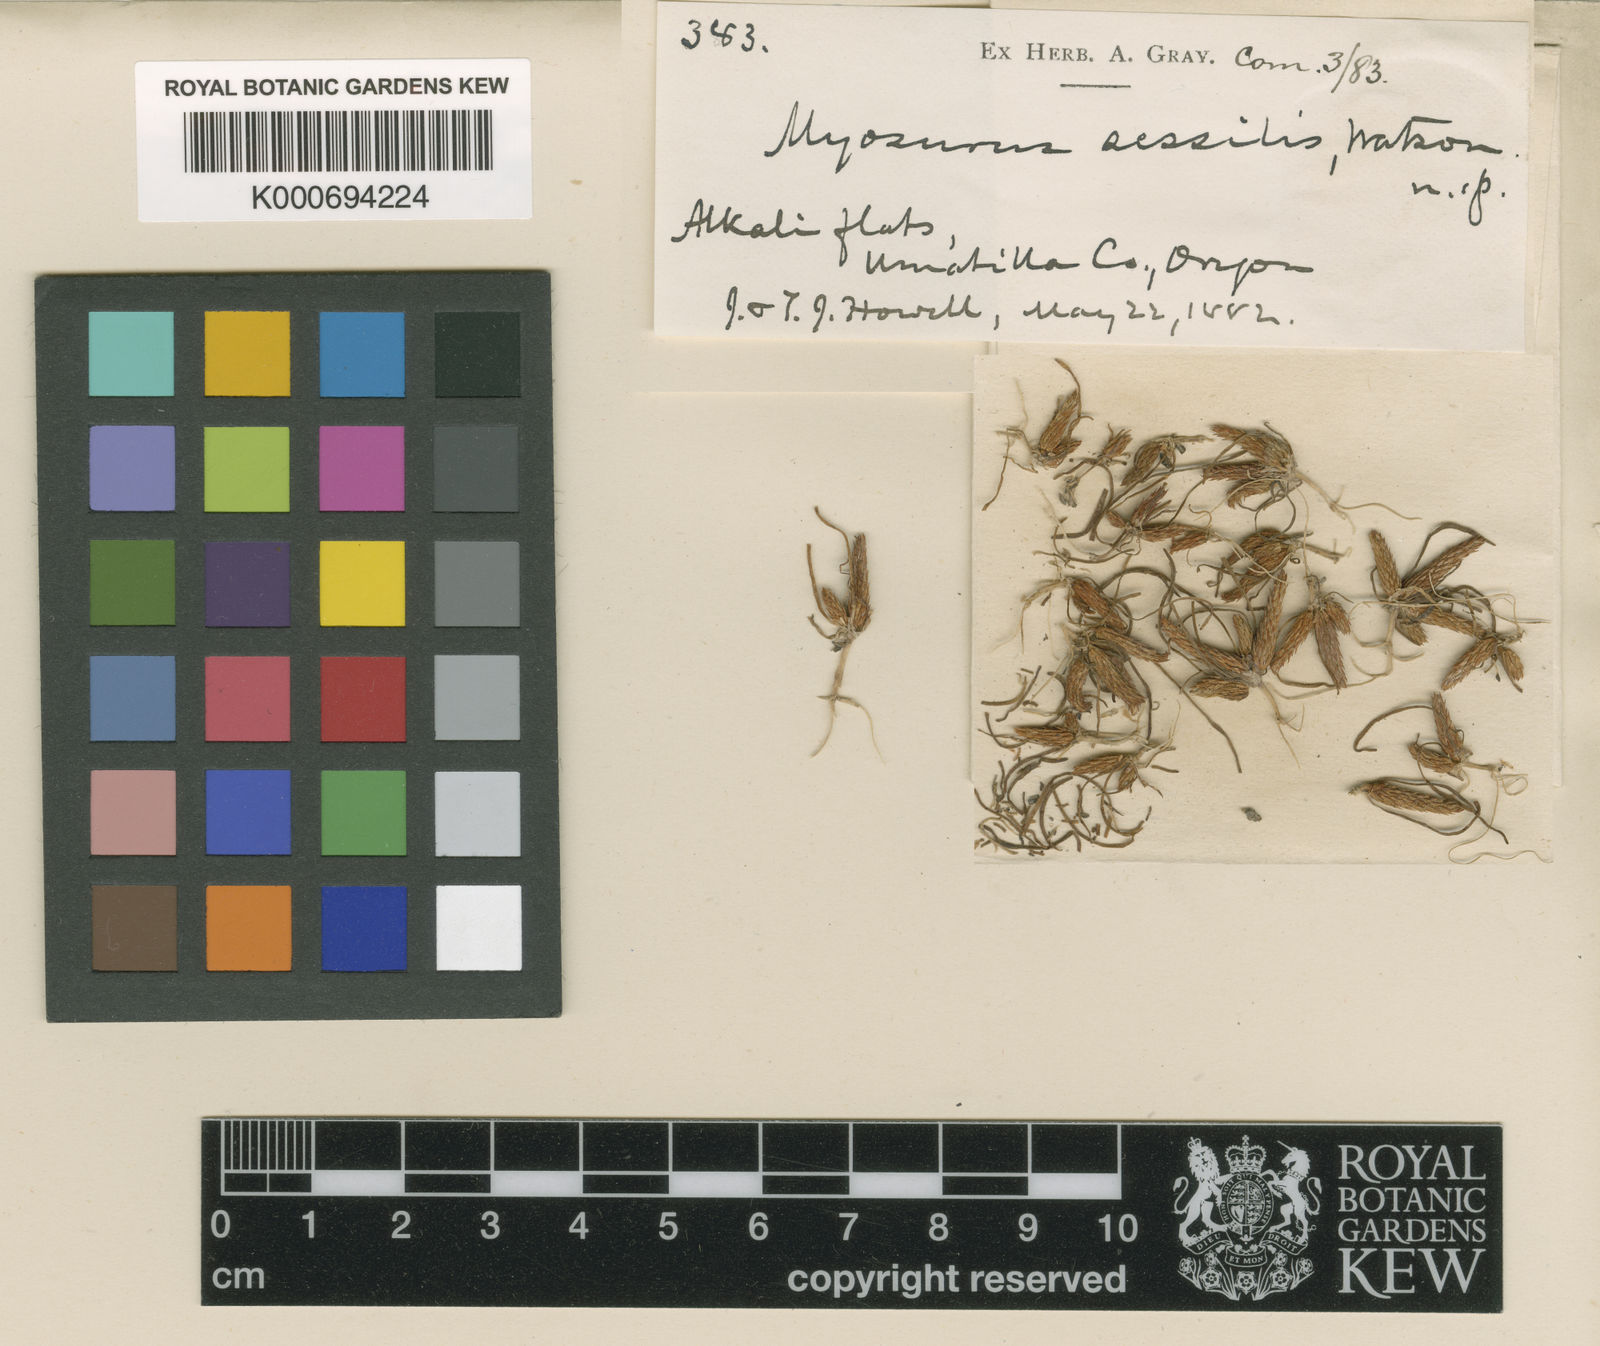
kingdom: Plantae
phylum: Tracheophyta
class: Magnoliopsida
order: Ranunculales
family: Ranunculaceae
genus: Myosurus
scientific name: Myosurus sessilis
